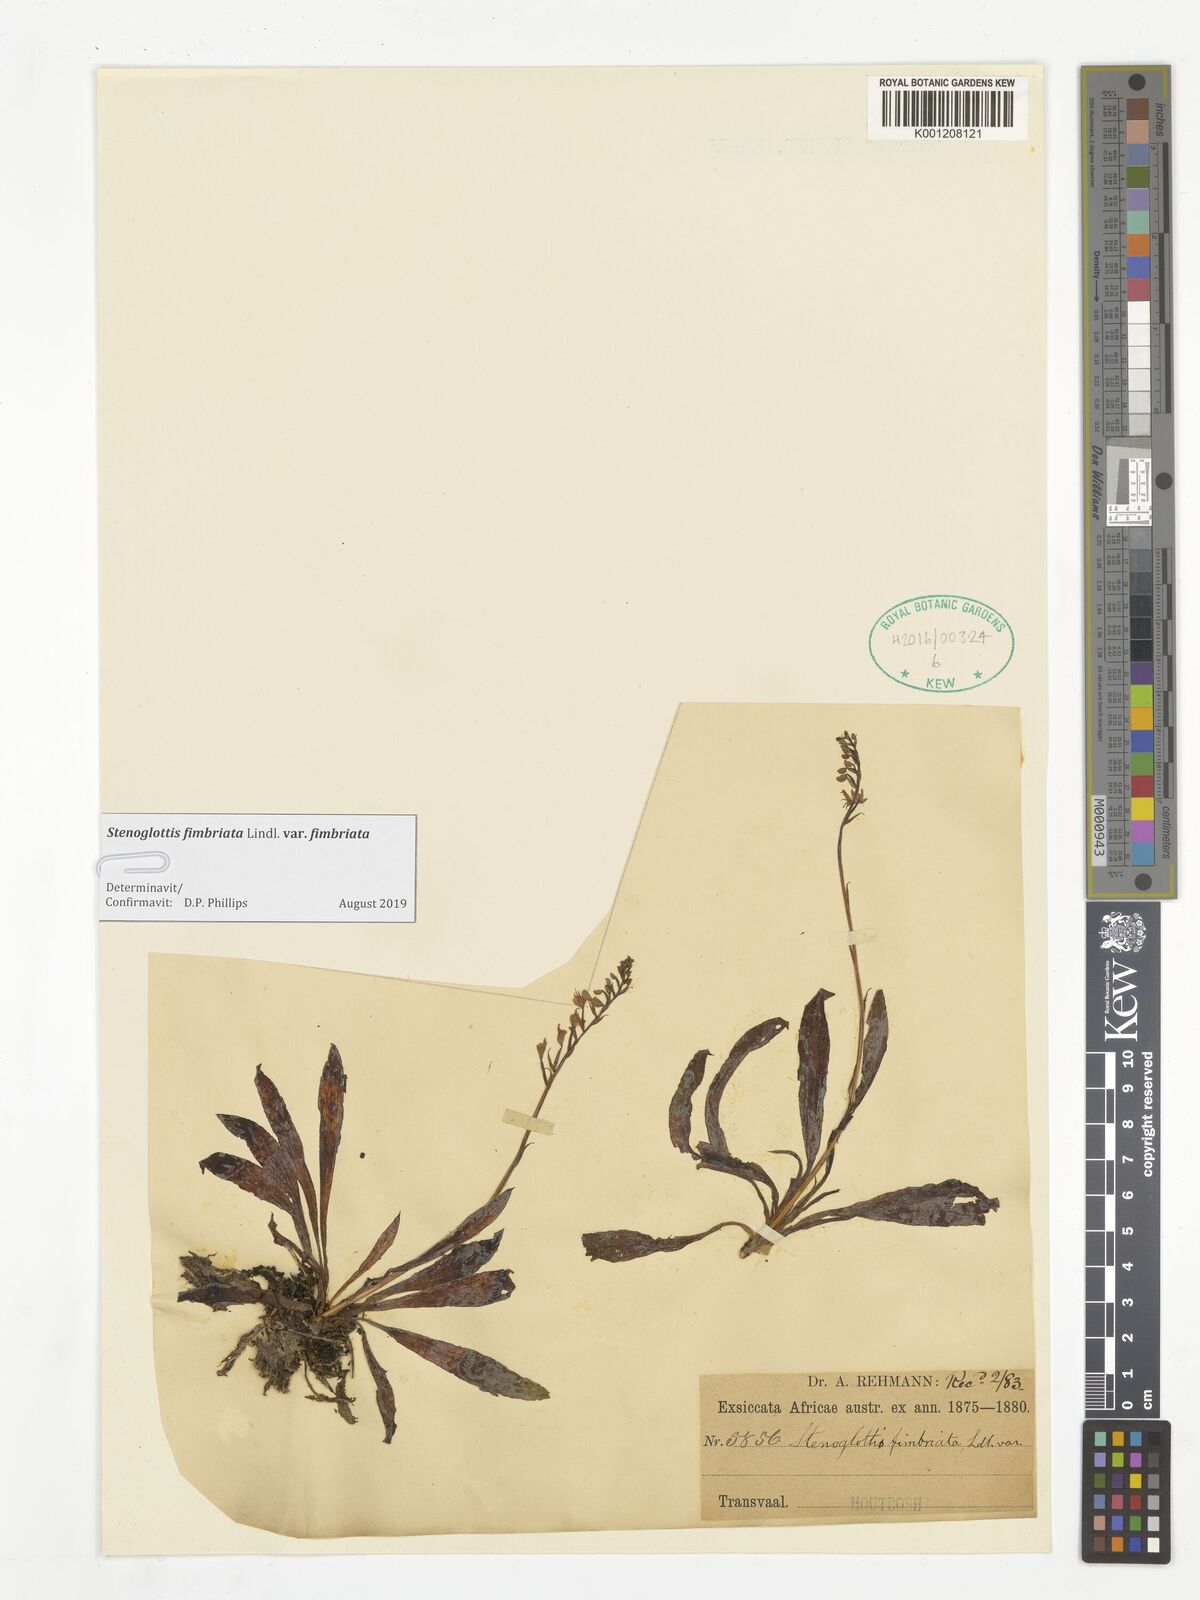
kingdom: Plantae
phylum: Tracheophyta
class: Liliopsida
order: Asparagales
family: Orchidaceae
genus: Stenoglottis
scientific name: Stenoglottis fimbriata
